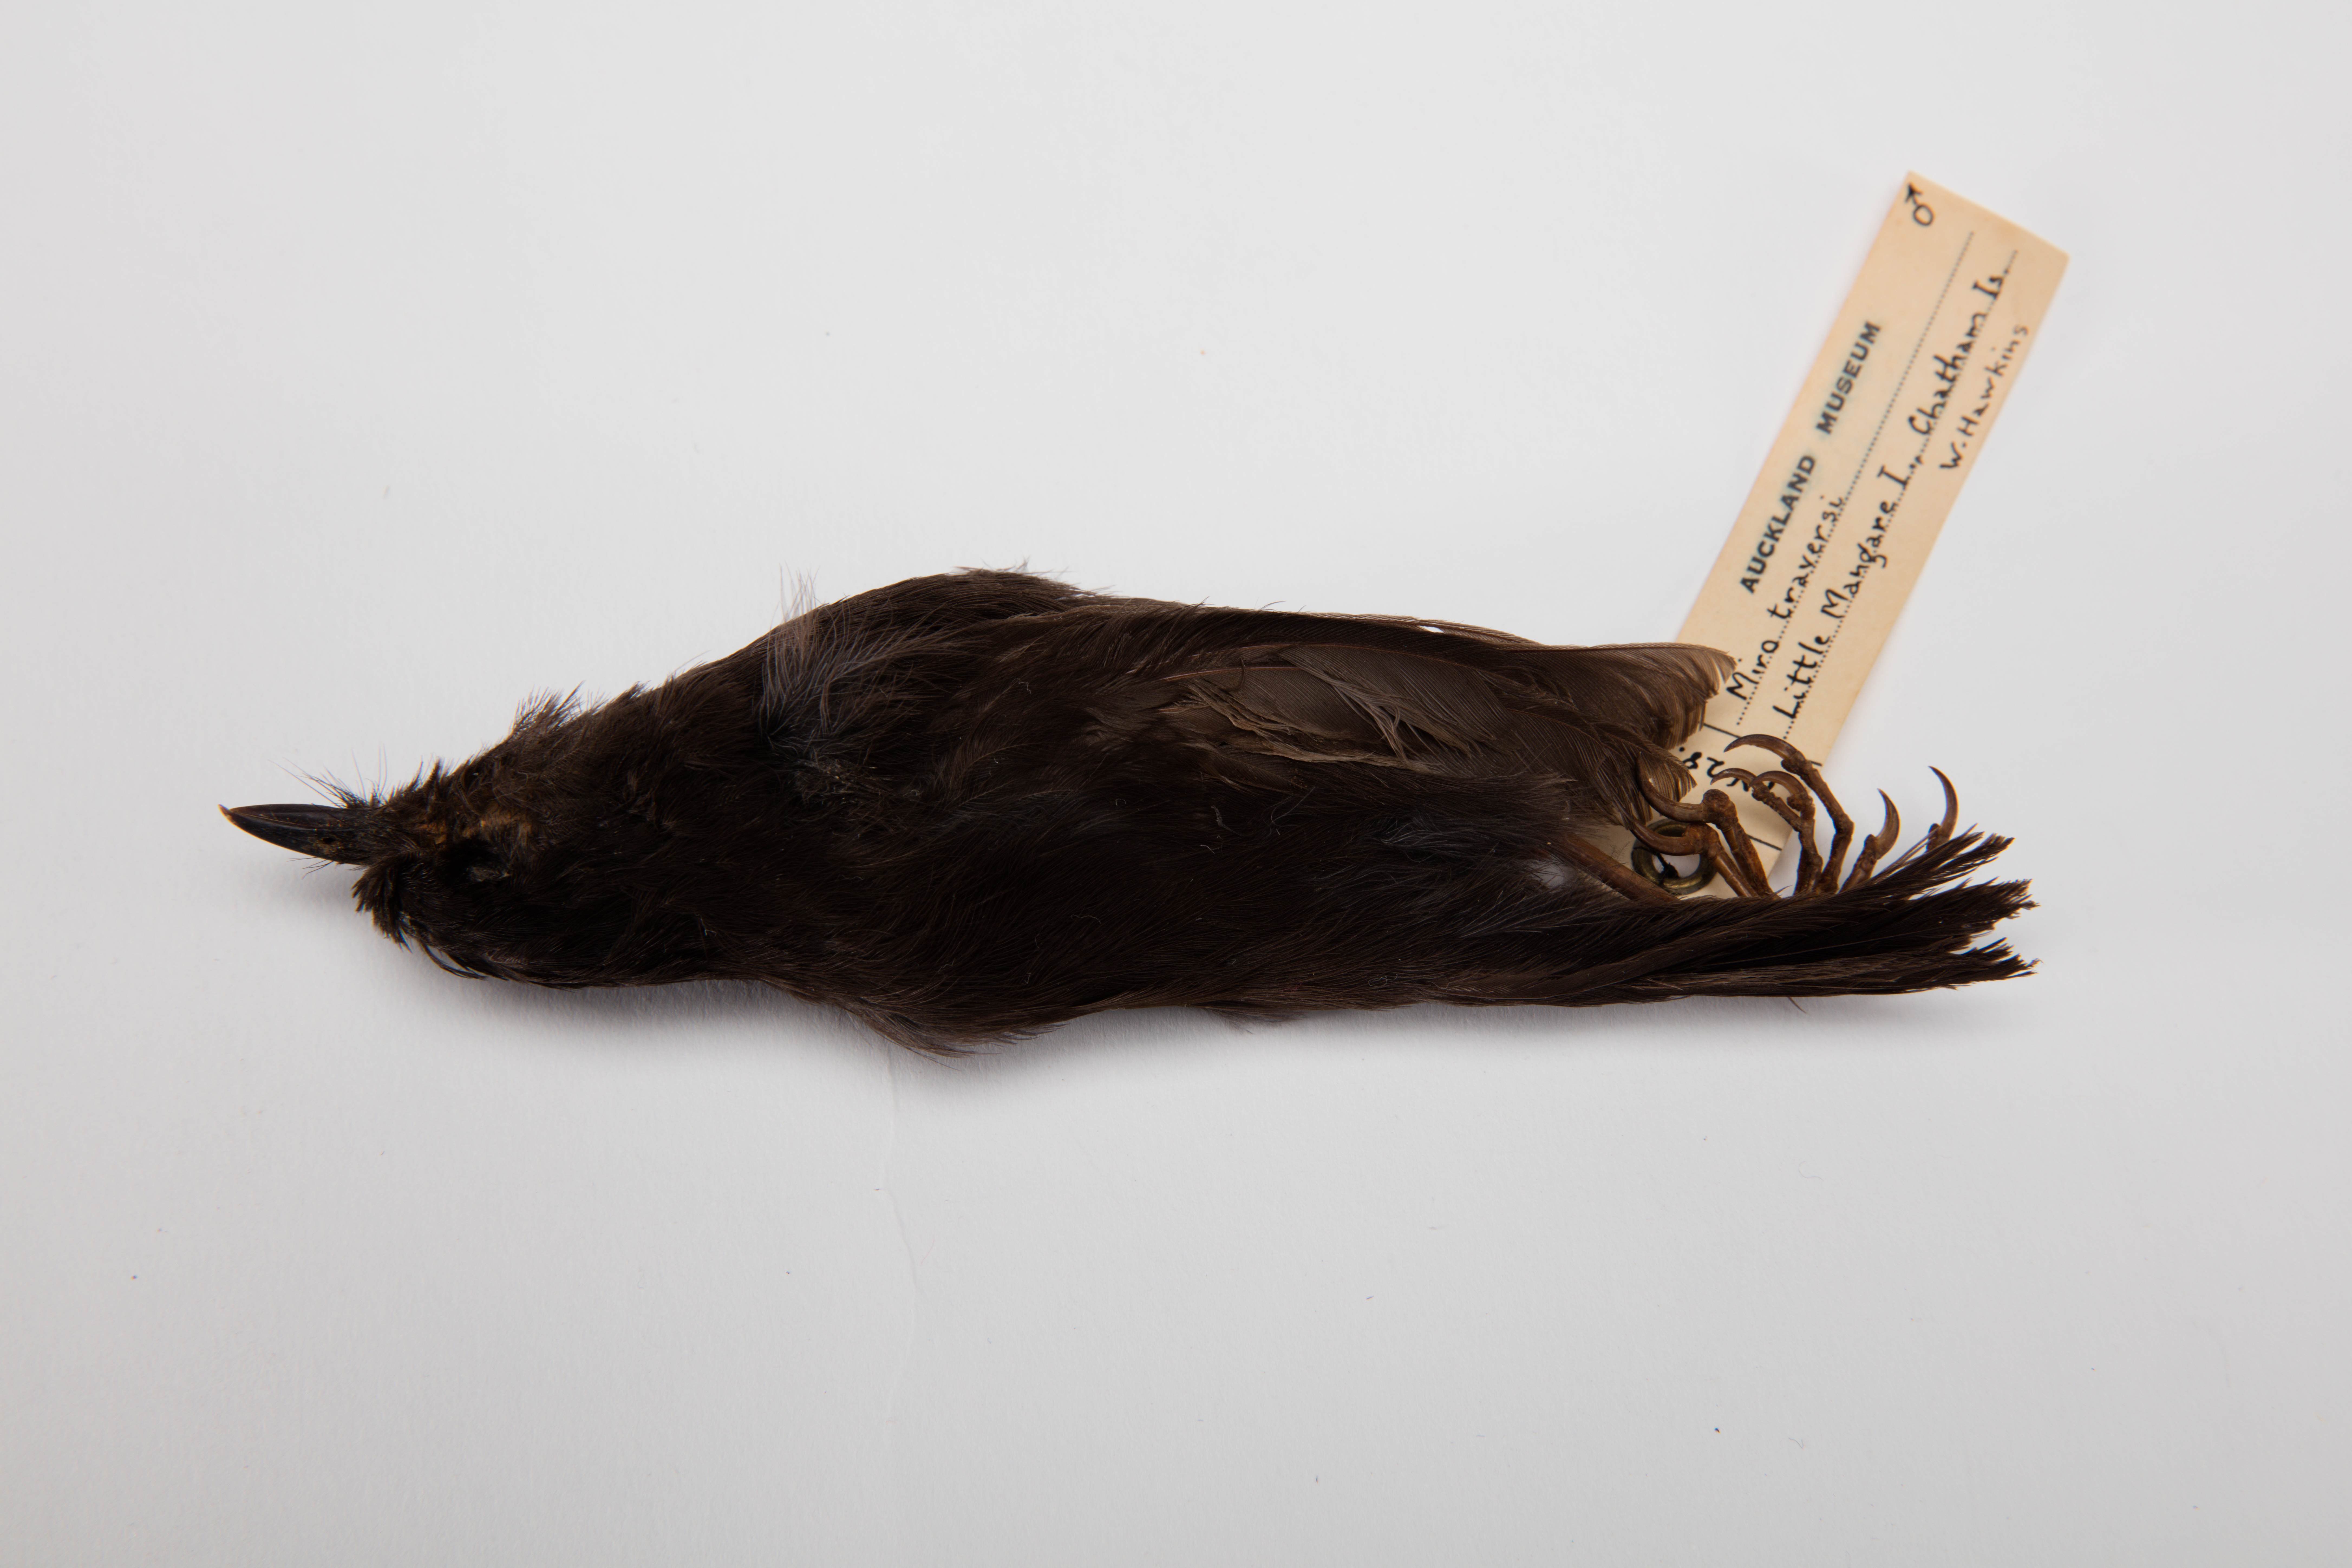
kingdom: Animalia
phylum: Chordata
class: Aves
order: Passeriformes
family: Petroicidae
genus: Petroica
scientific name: Petroica traversi
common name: Black robin
